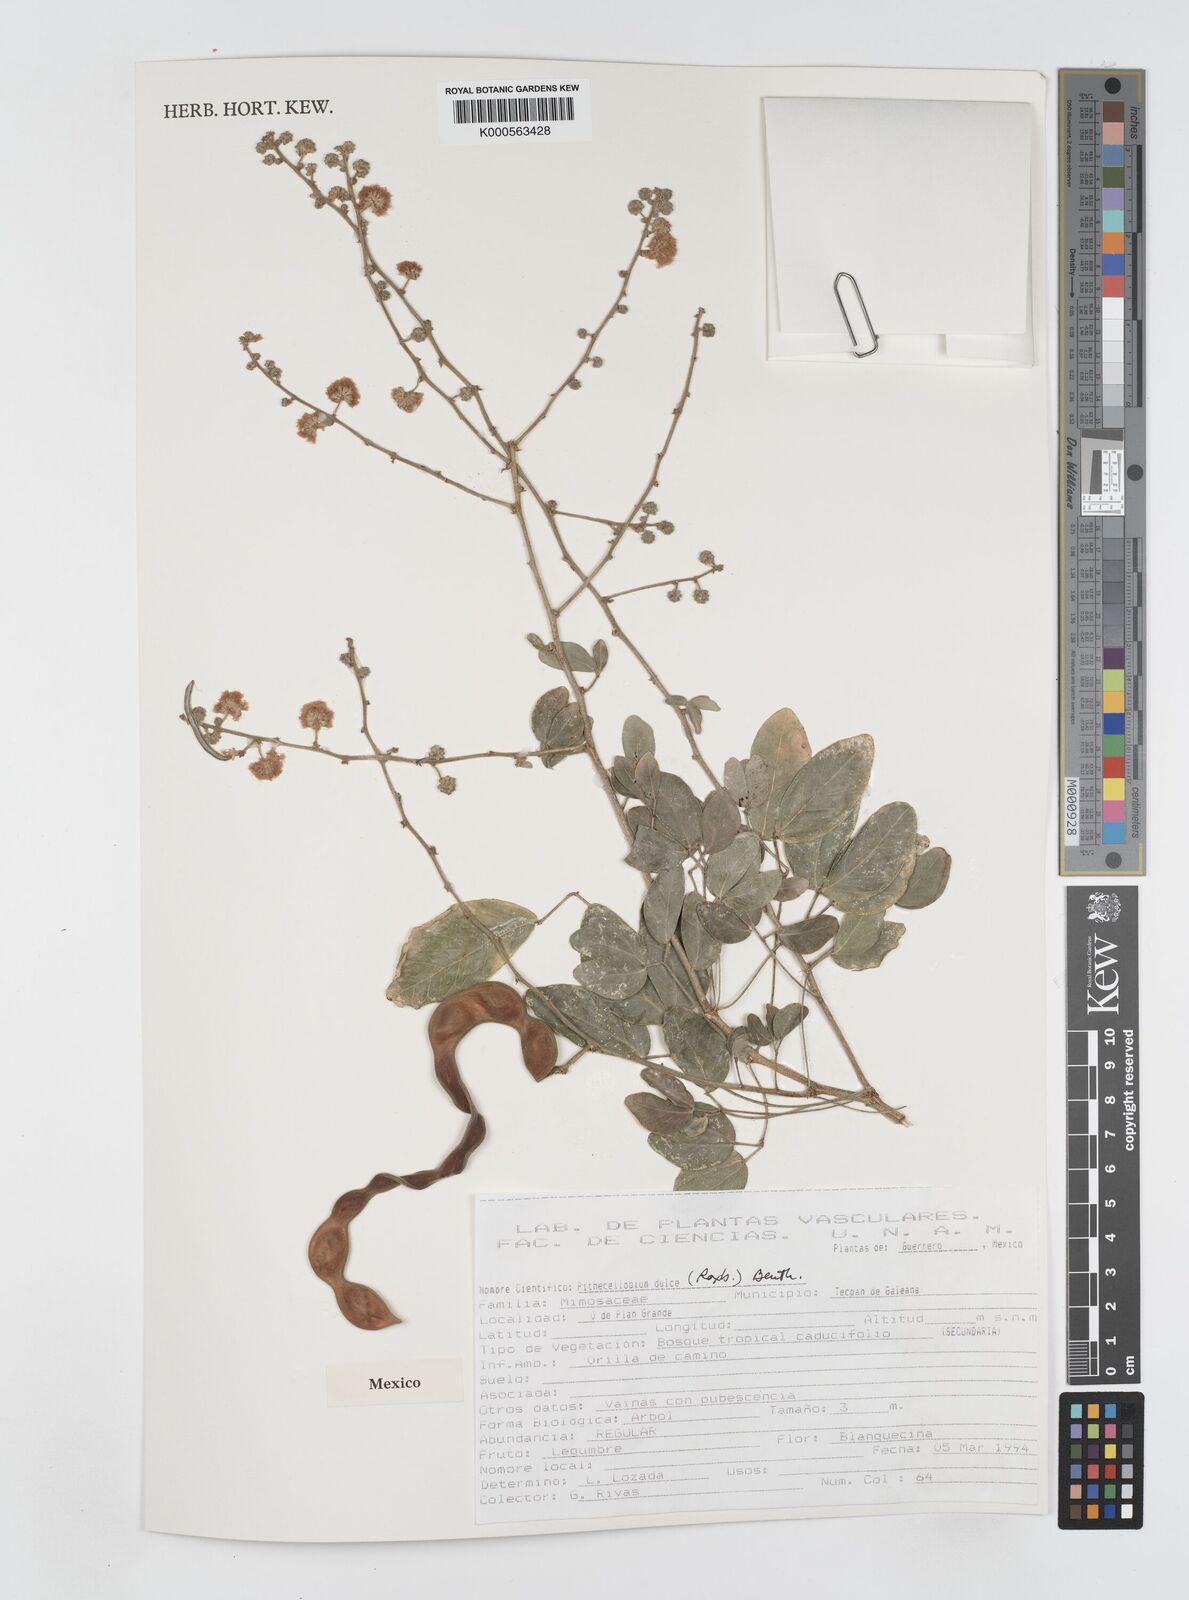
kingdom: Plantae
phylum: Tracheophyta
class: Magnoliopsida
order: Fabales
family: Fabaceae
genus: Pithecellobium
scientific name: Pithecellobium dulce
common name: Monkeypod
